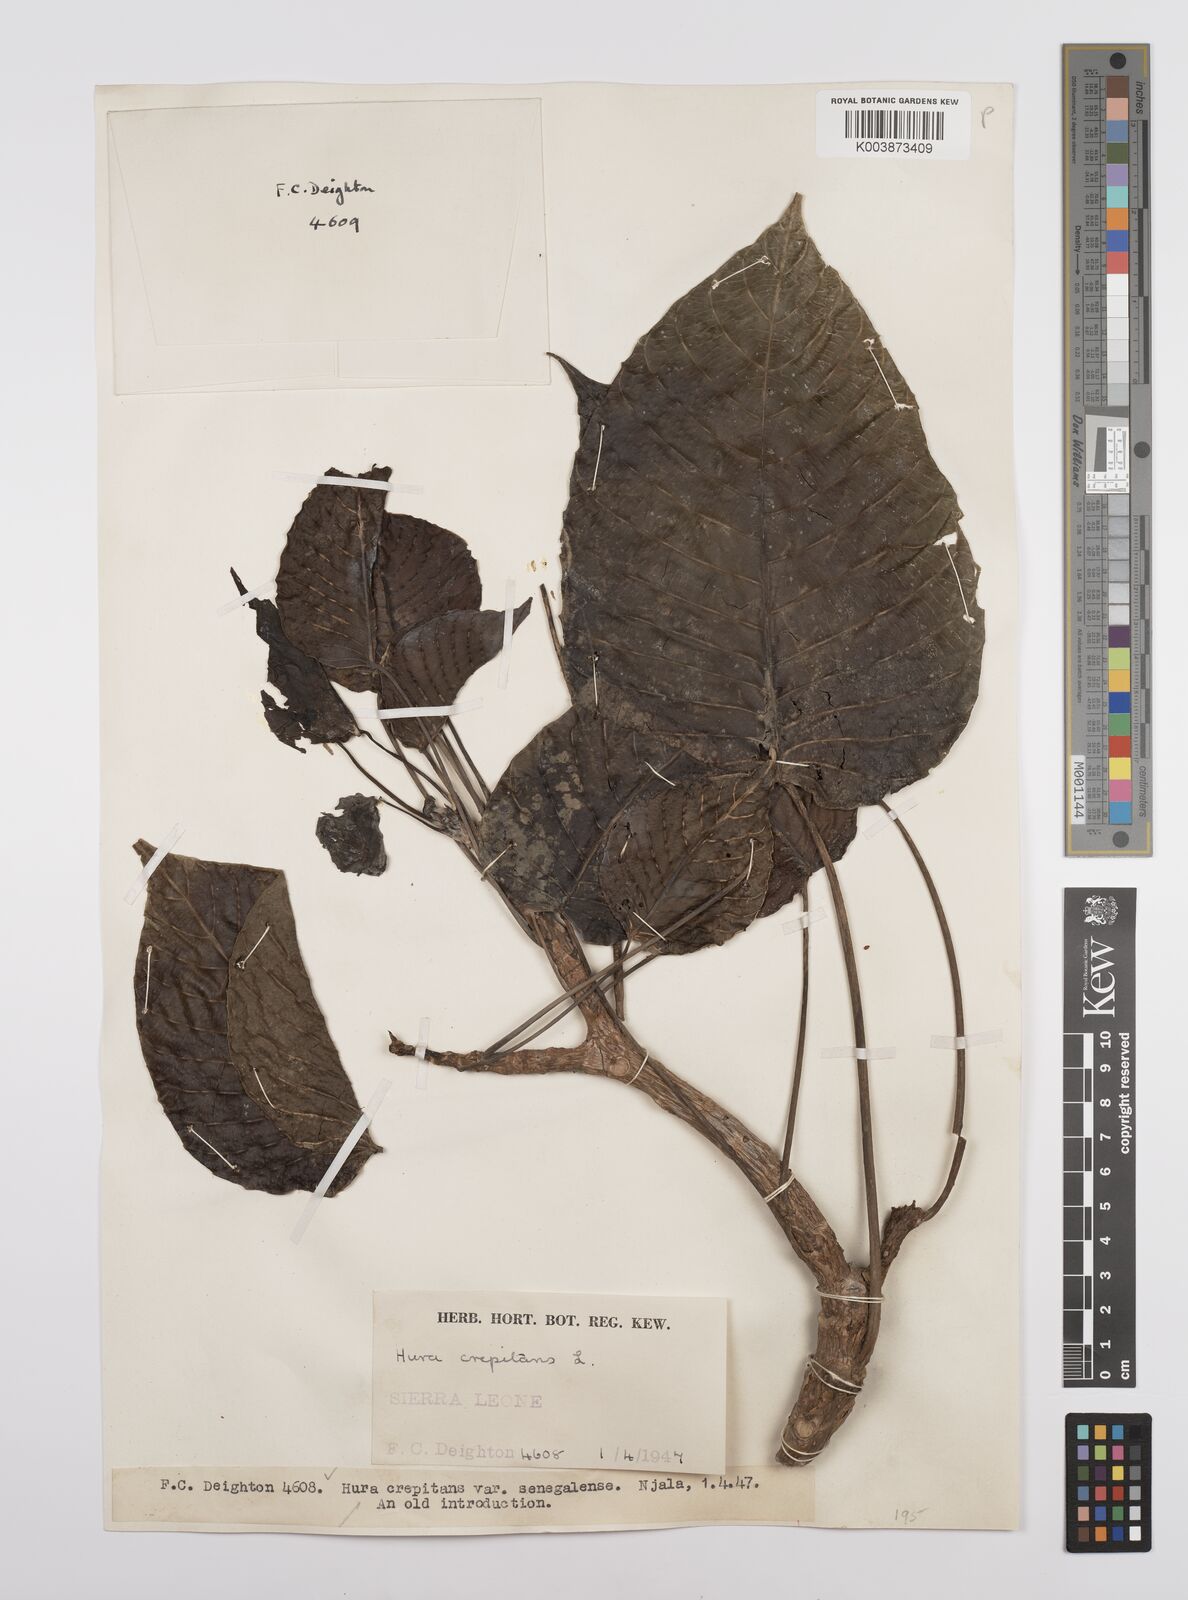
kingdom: Plantae
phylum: Tracheophyta
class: Magnoliopsida
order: Malpighiales
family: Euphorbiaceae
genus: Hura
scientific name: Hura crepitans
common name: Sandboxtree
